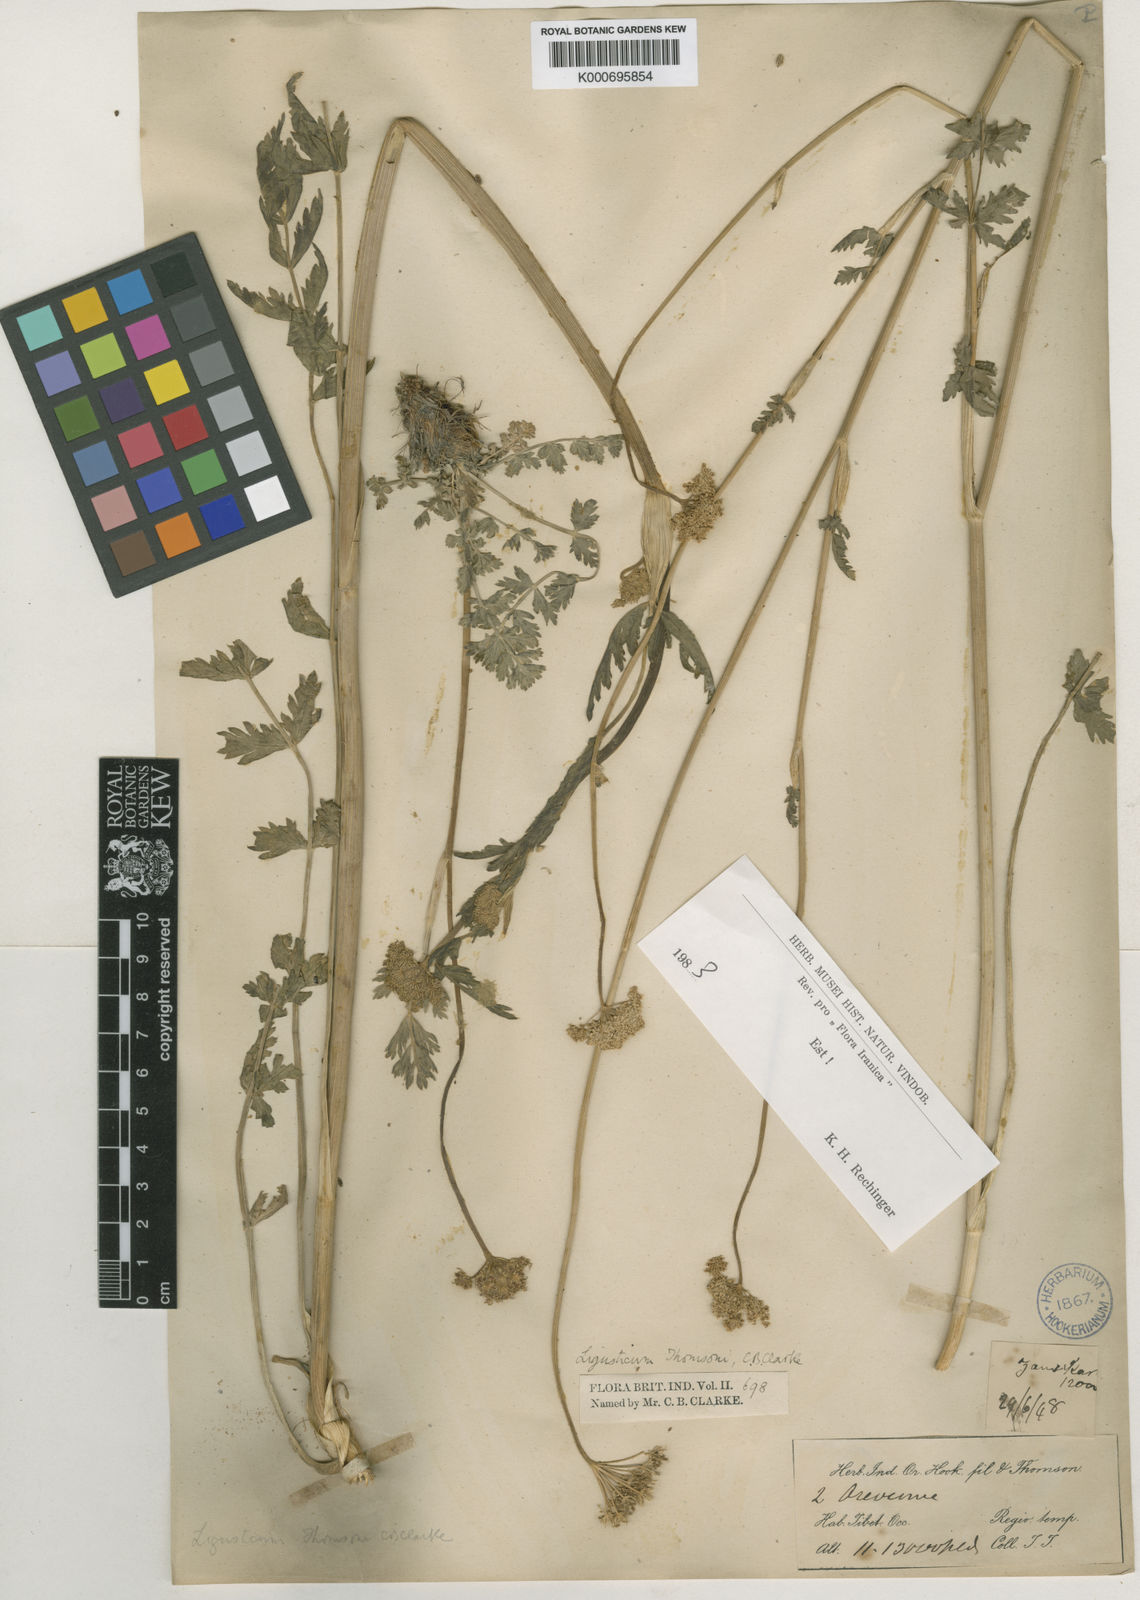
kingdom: Plantae
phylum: Tracheophyta
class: Magnoliopsida
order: Apiales
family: Apiaceae
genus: Seseli
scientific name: Seseli mucronatum
